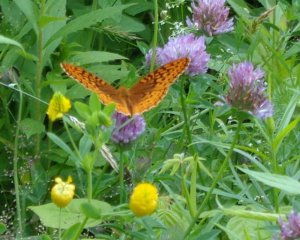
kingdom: Animalia
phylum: Arthropoda
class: Insecta
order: Lepidoptera
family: Nymphalidae
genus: Speyeria
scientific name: Speyeria cybele
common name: Great Spangled Fritillary
